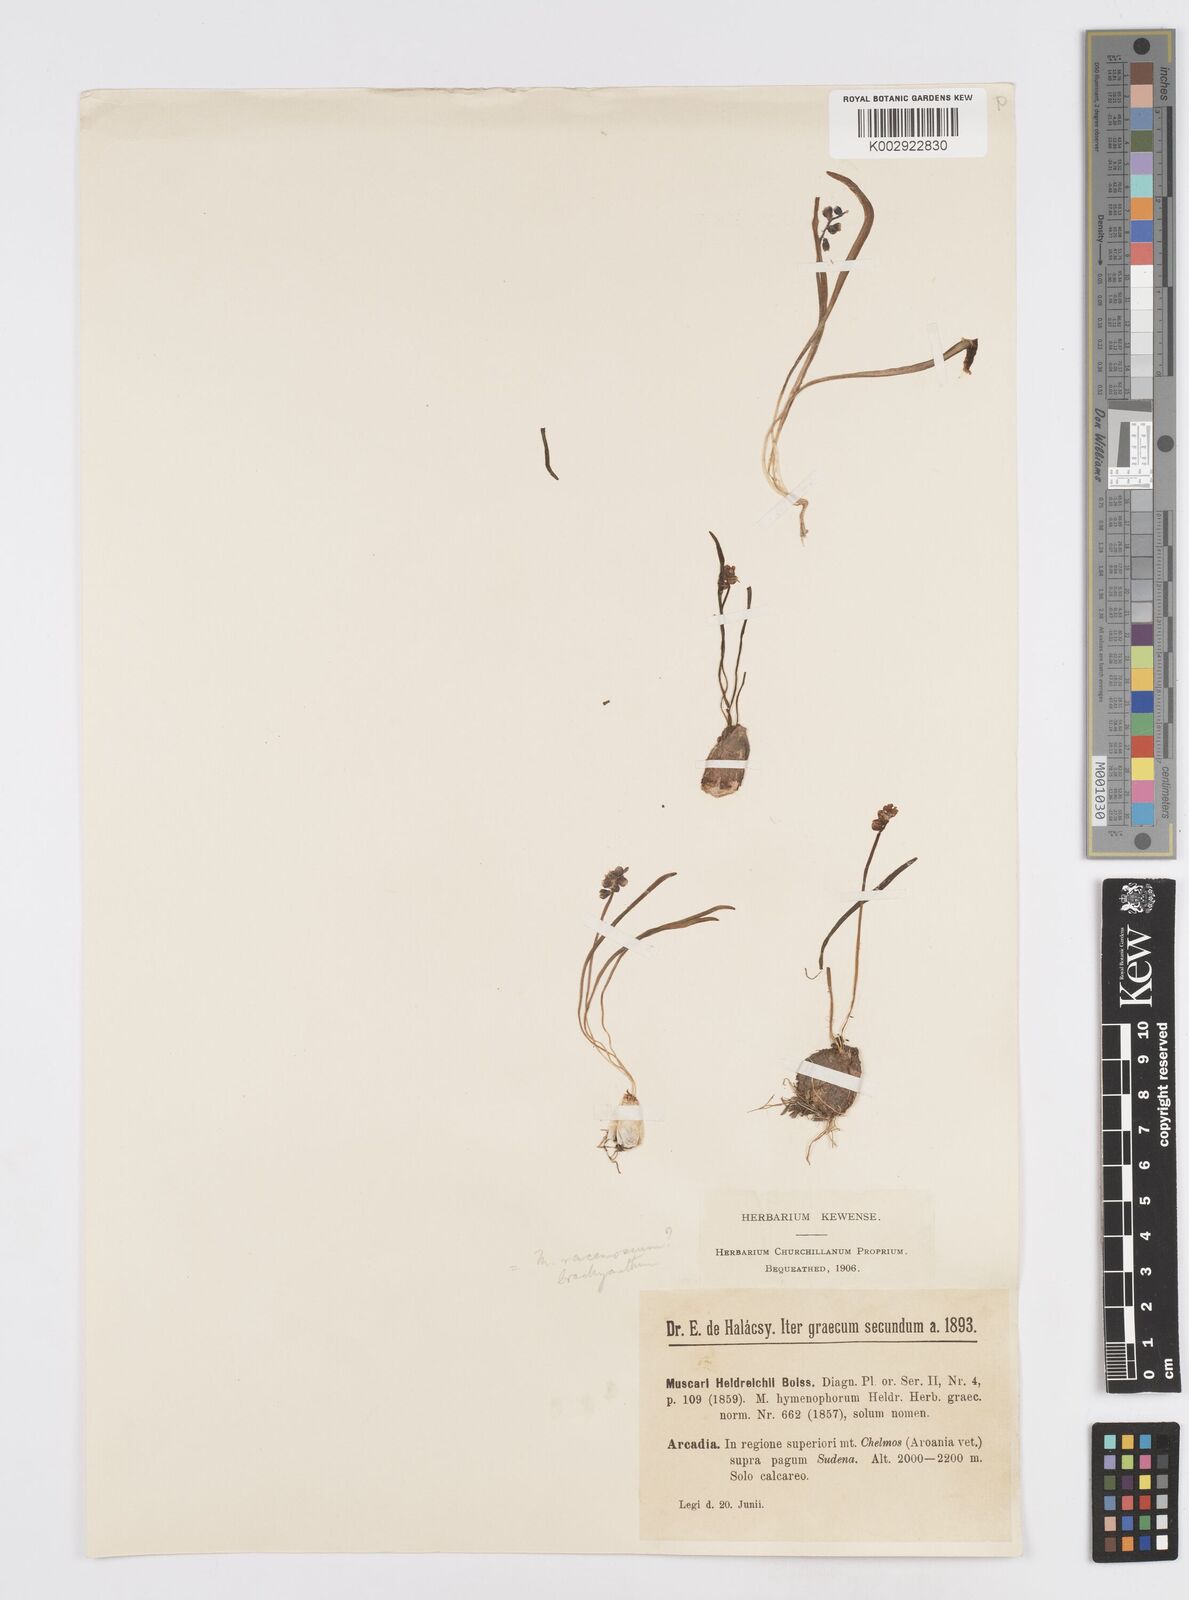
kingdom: Plantae
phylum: Tracheophyta
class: Liliopsida
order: Asparagales
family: Asparagaceae
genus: Muscari
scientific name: Muscari botryoides
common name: Compact grape-hyacinth
